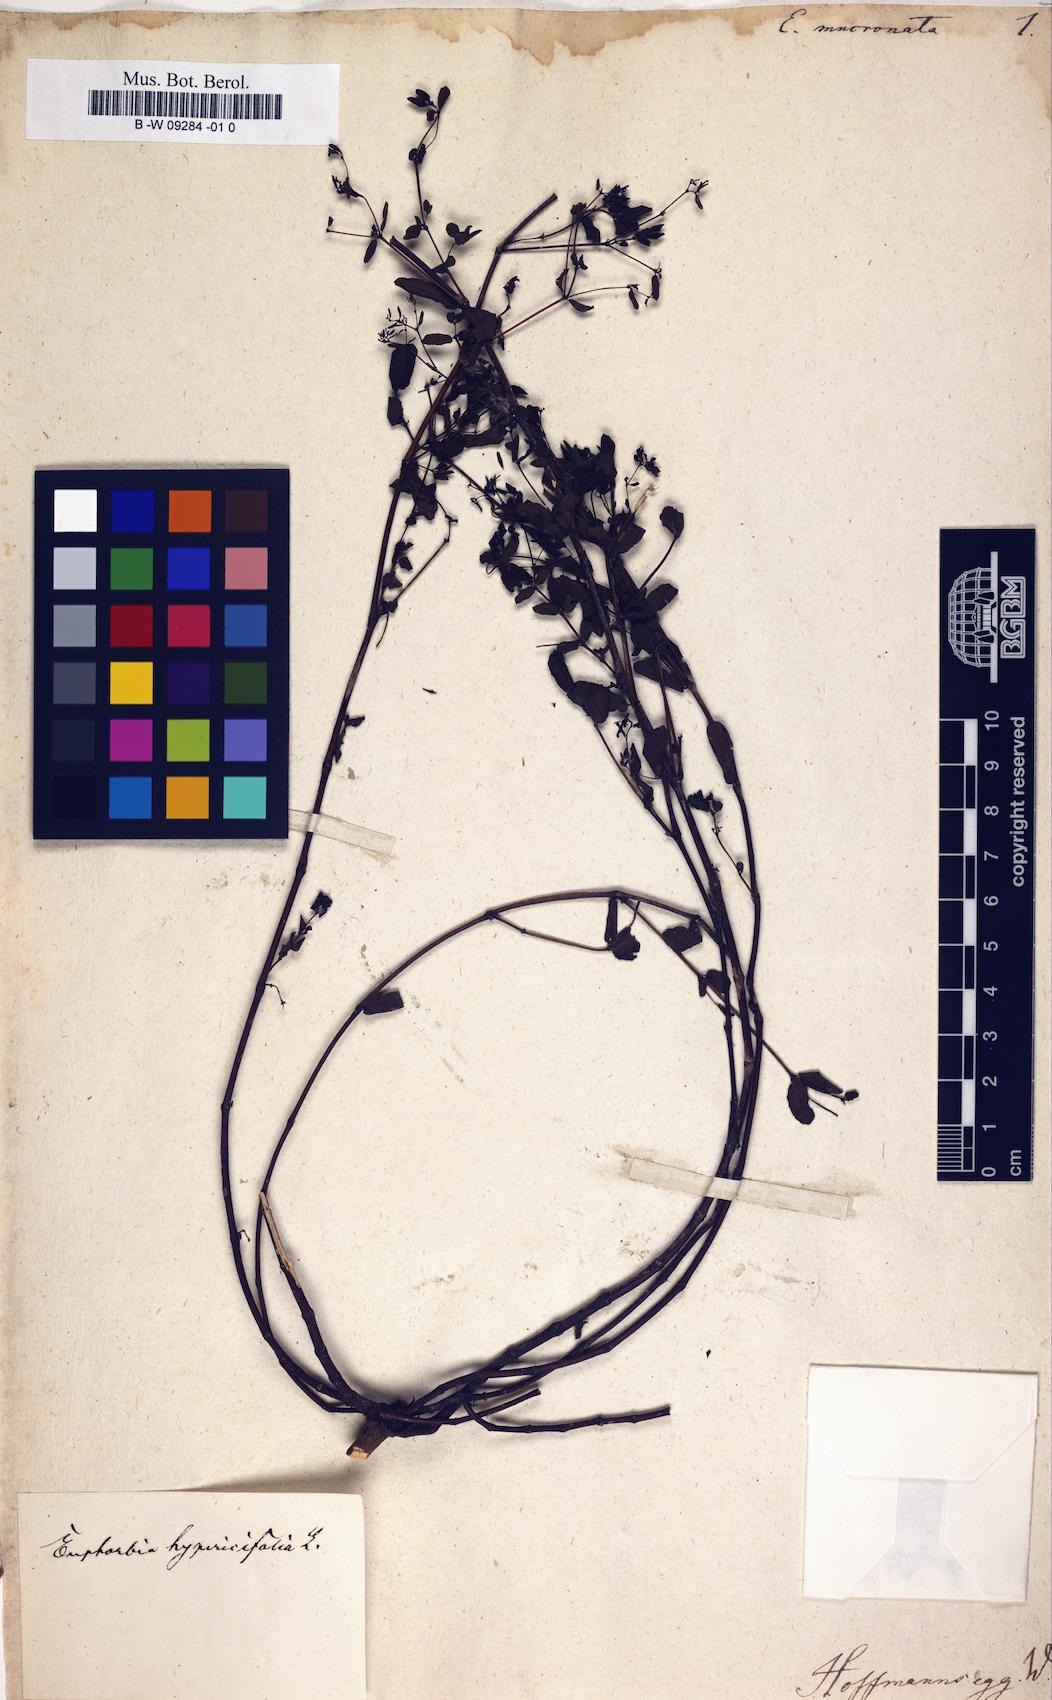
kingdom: Plantae
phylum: Tracheophyta
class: Magnoliopsida
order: Malpighiales
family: Euphorbiaceae
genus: Euphorbia
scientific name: Euphorbia
